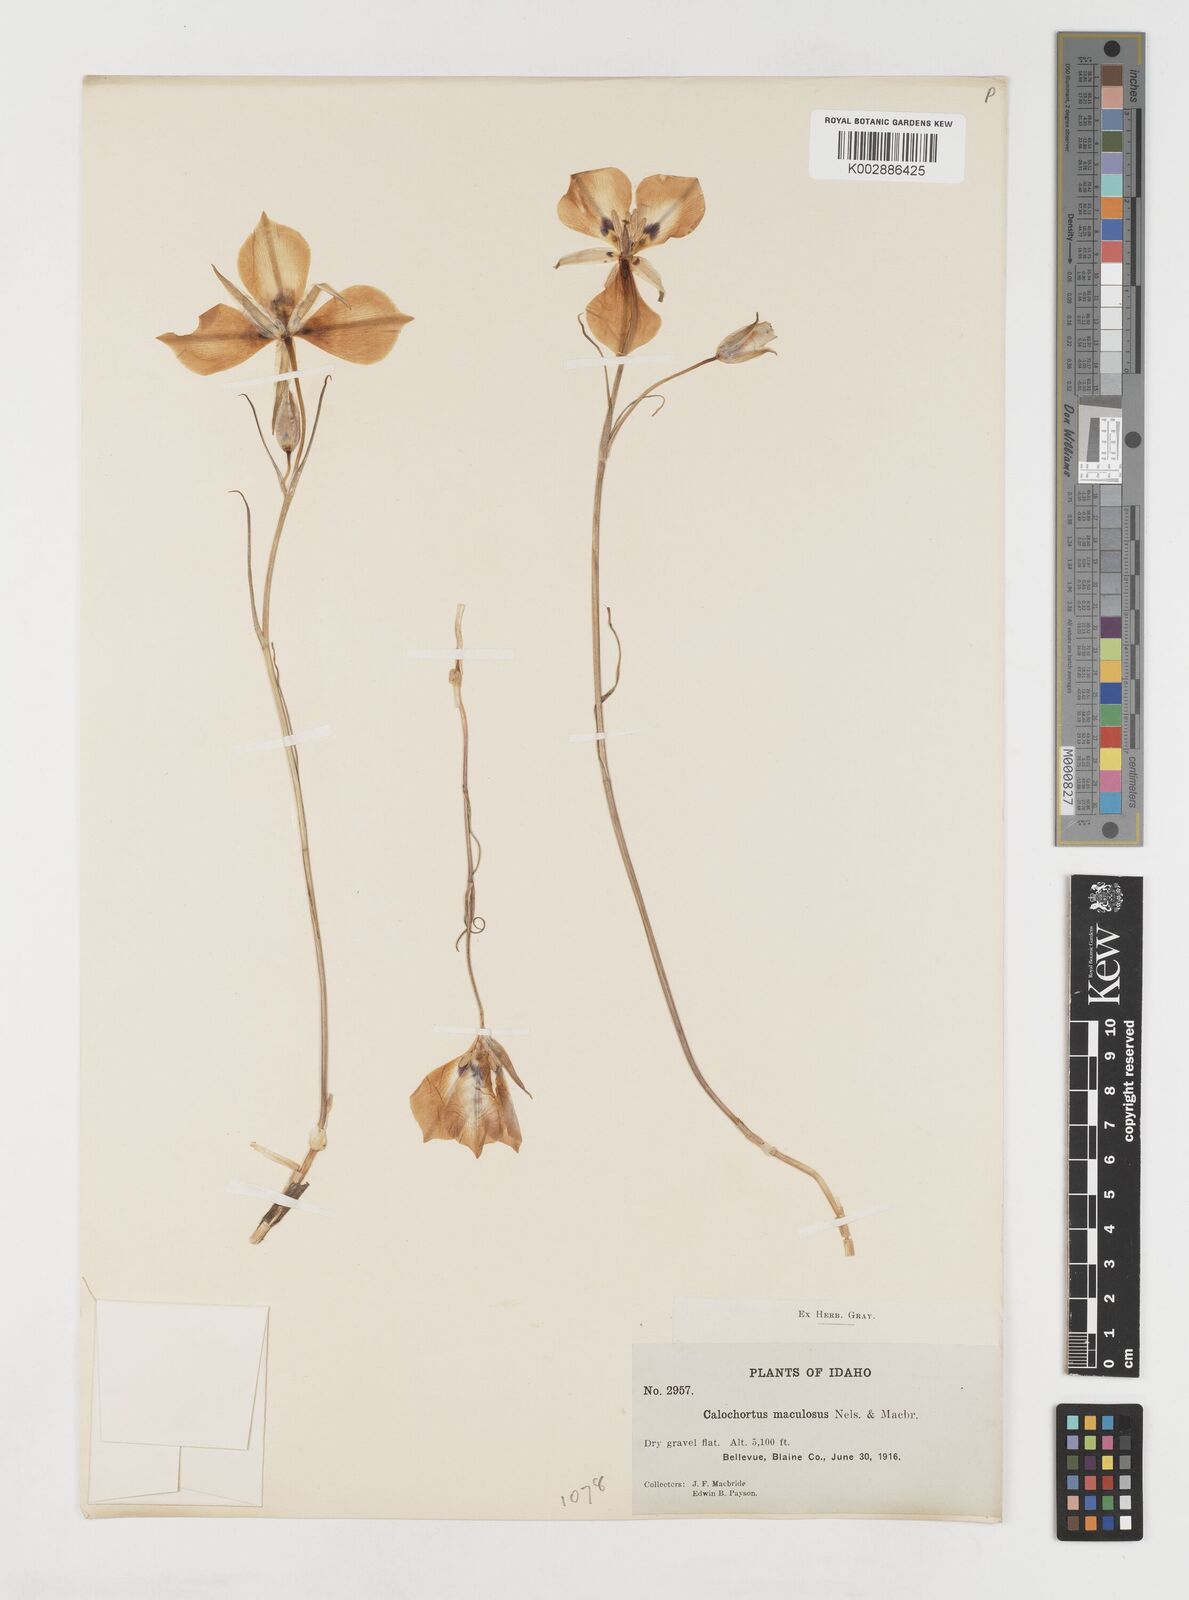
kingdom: Plantae
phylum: Tracheophyta
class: Liliopsida
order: Liliales
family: Liliaceae
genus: Calochortus
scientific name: Calochortus macrocarpus
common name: Green-band mariposa lily
